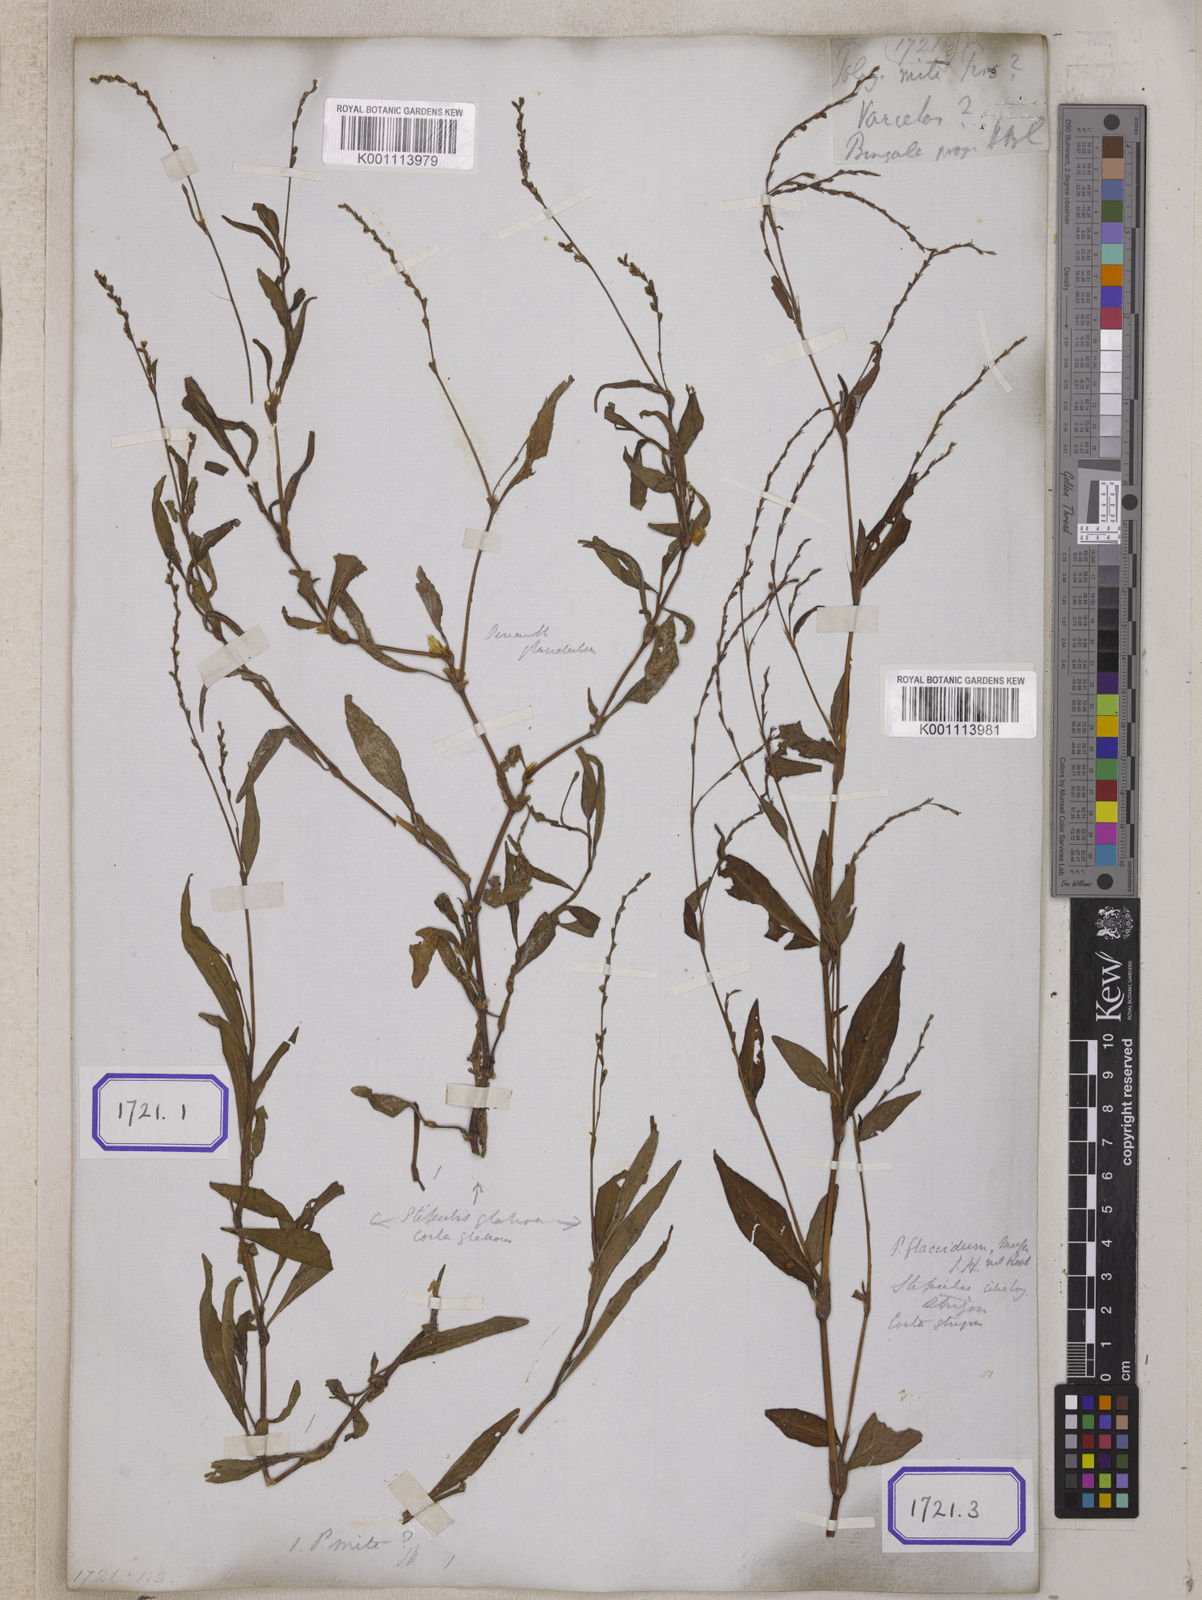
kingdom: Plantae
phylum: Tracheophyta
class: Magnoliopsida
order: Caryophyllales
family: Polygonaceae
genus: Persicaria
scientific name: Persicaria hydropiperoides
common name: Swamp smartweed
